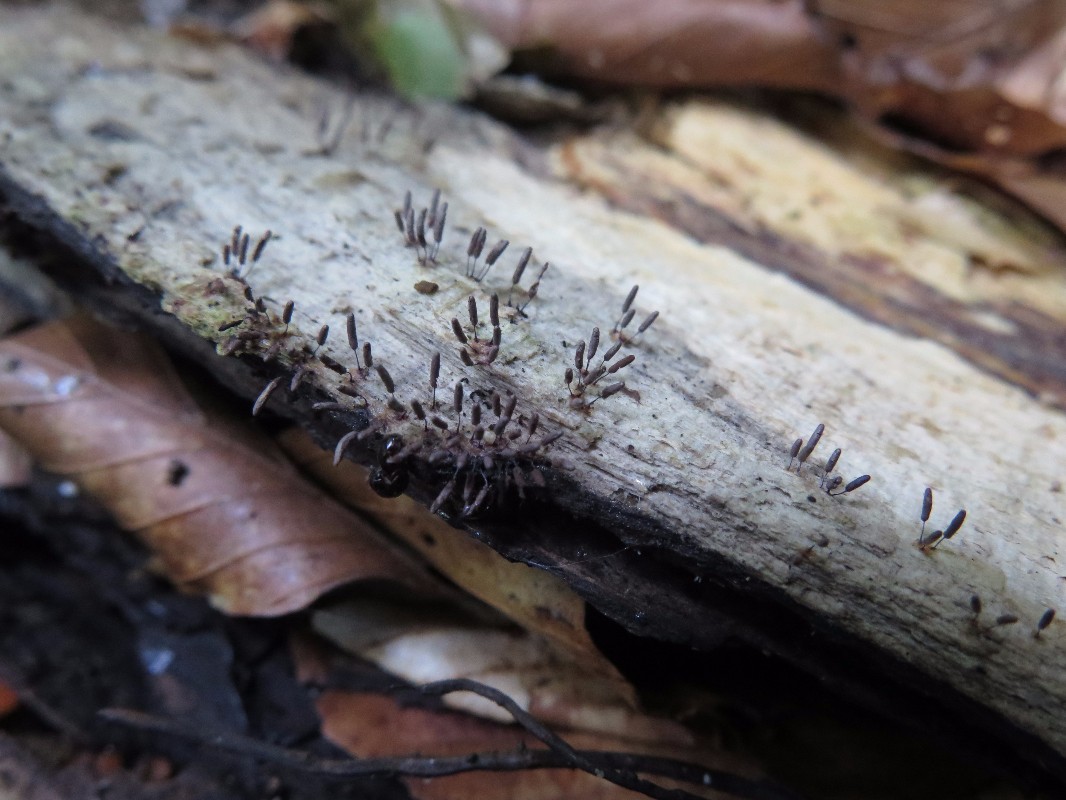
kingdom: Protozoa
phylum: Mycetozoa
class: Myxomycetes
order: Stemonitidales
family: Stemonitidaceae
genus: Stemonitopsis
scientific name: Stemonitopsis typhina
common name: skinnende støvkølle
